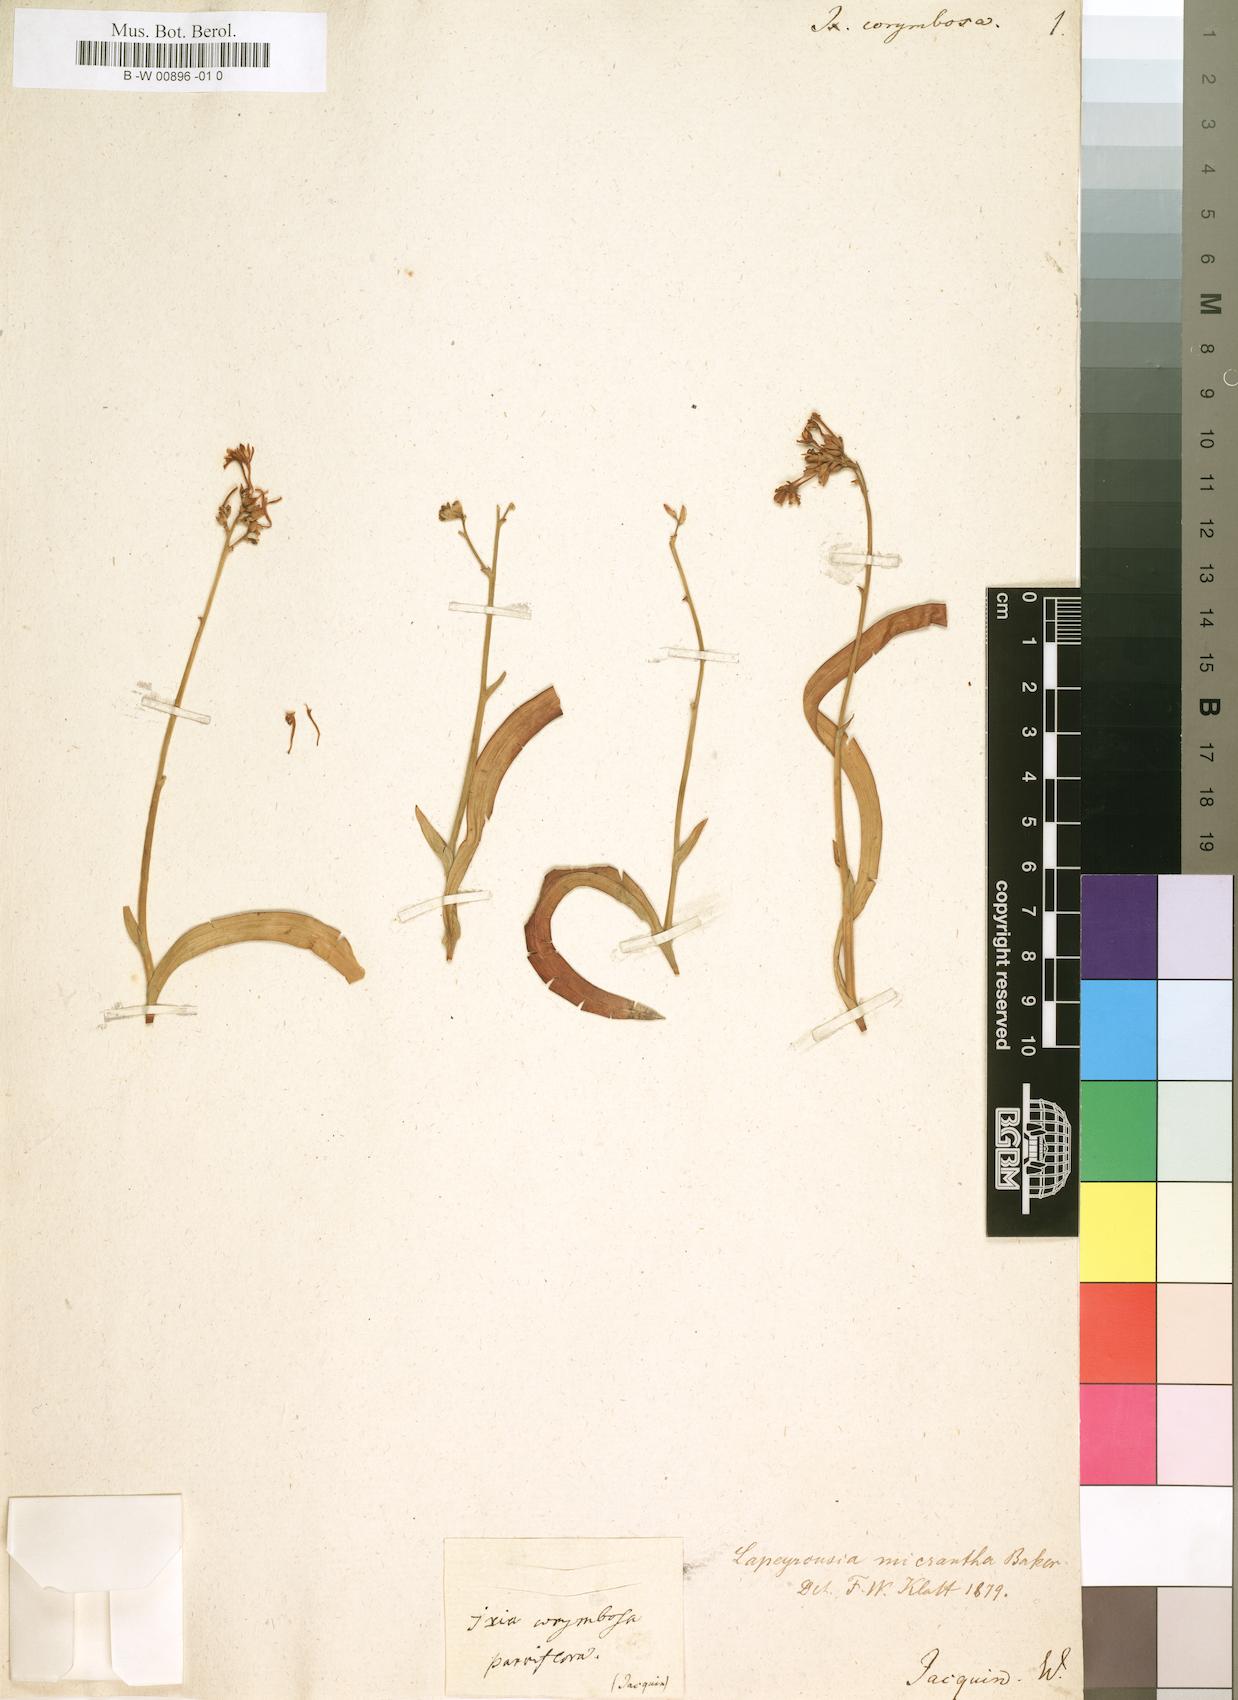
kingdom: Plantae
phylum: Tracheophyta
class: Liliopsida
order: Asparagales
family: Iridaceae
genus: Codonorhiza
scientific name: Codonorhiza corymbosa
